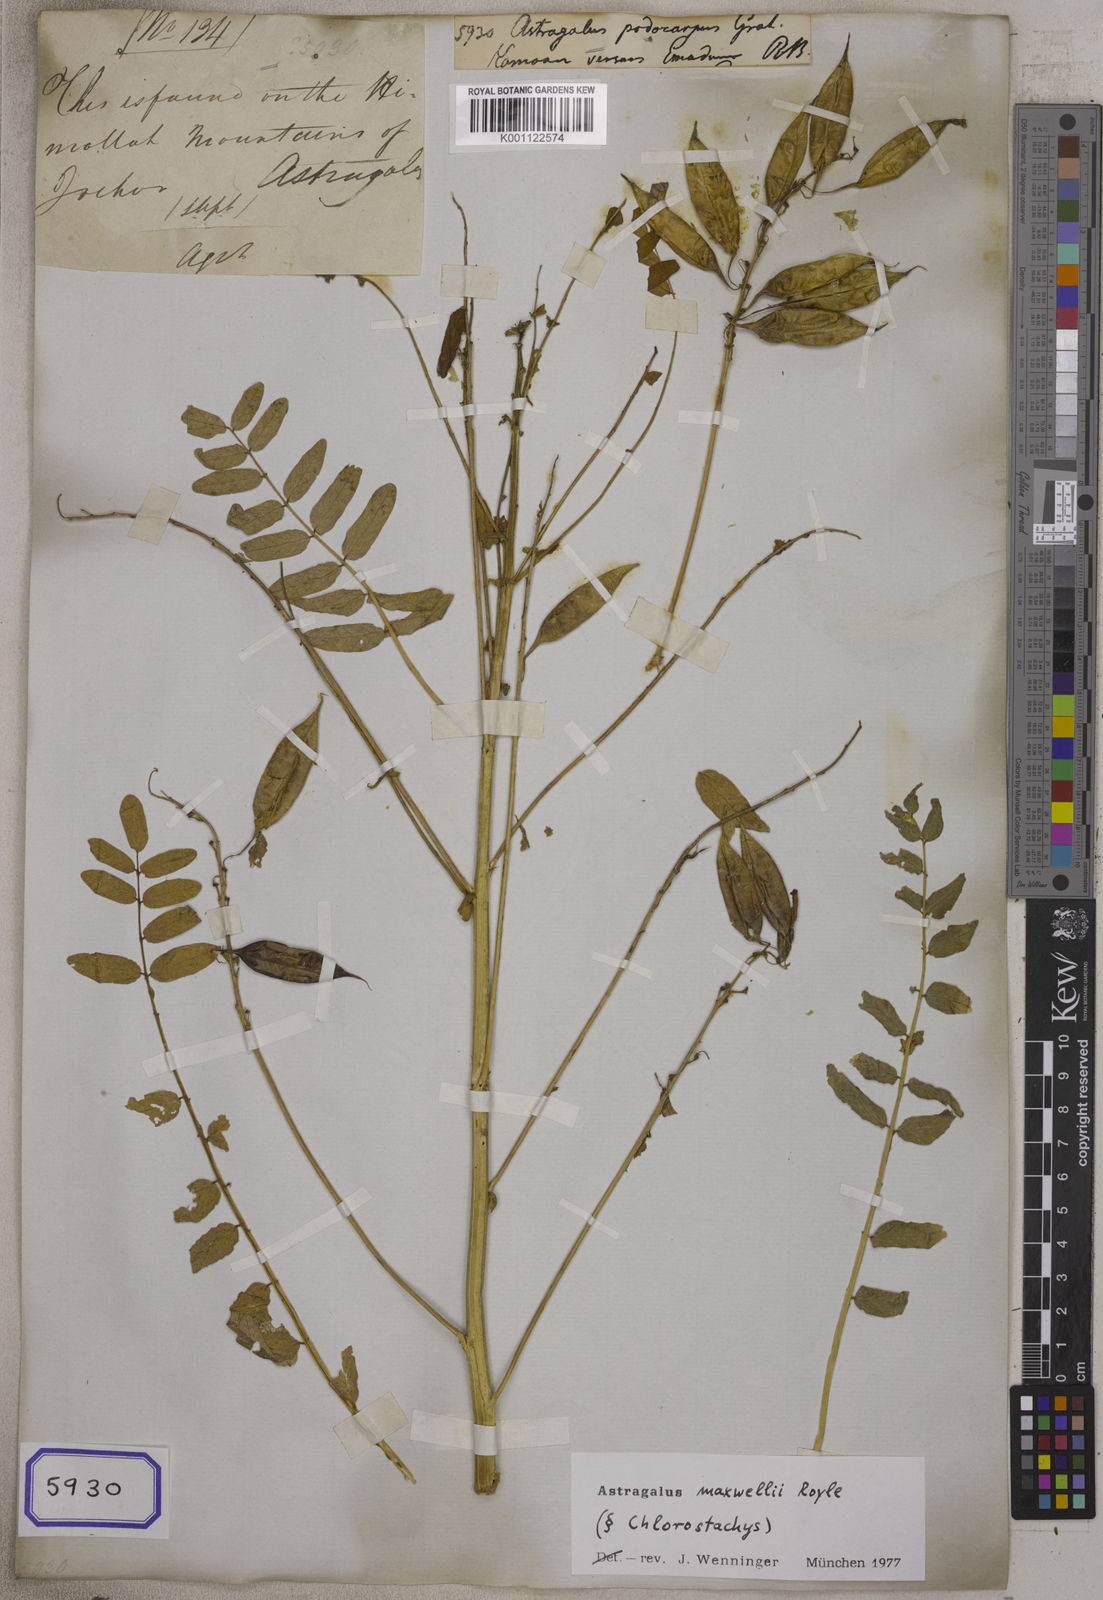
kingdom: Plantae
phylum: Tracheophyta
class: Magnoliopsida
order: Fabales
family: Fabaceae
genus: Astragalus
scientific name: Astragalus
